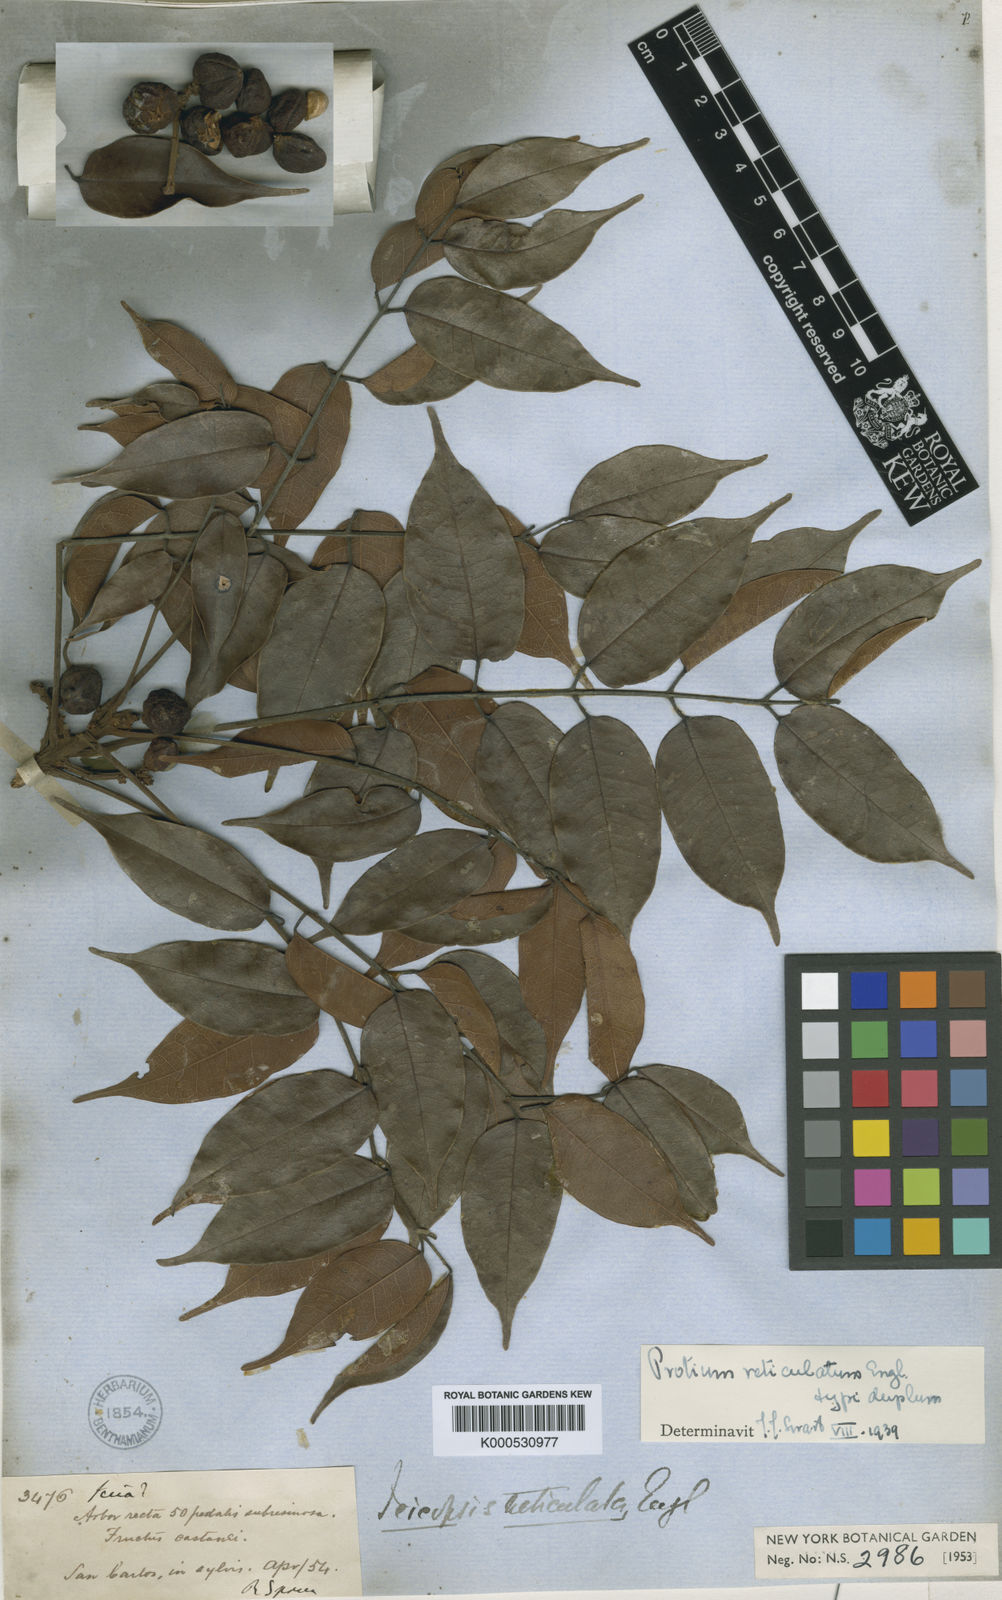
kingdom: Plantae
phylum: Tracheophyta
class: Magnoliopsida
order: Sapindales
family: Burseraceae
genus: Protium
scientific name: Protium reticulatum
